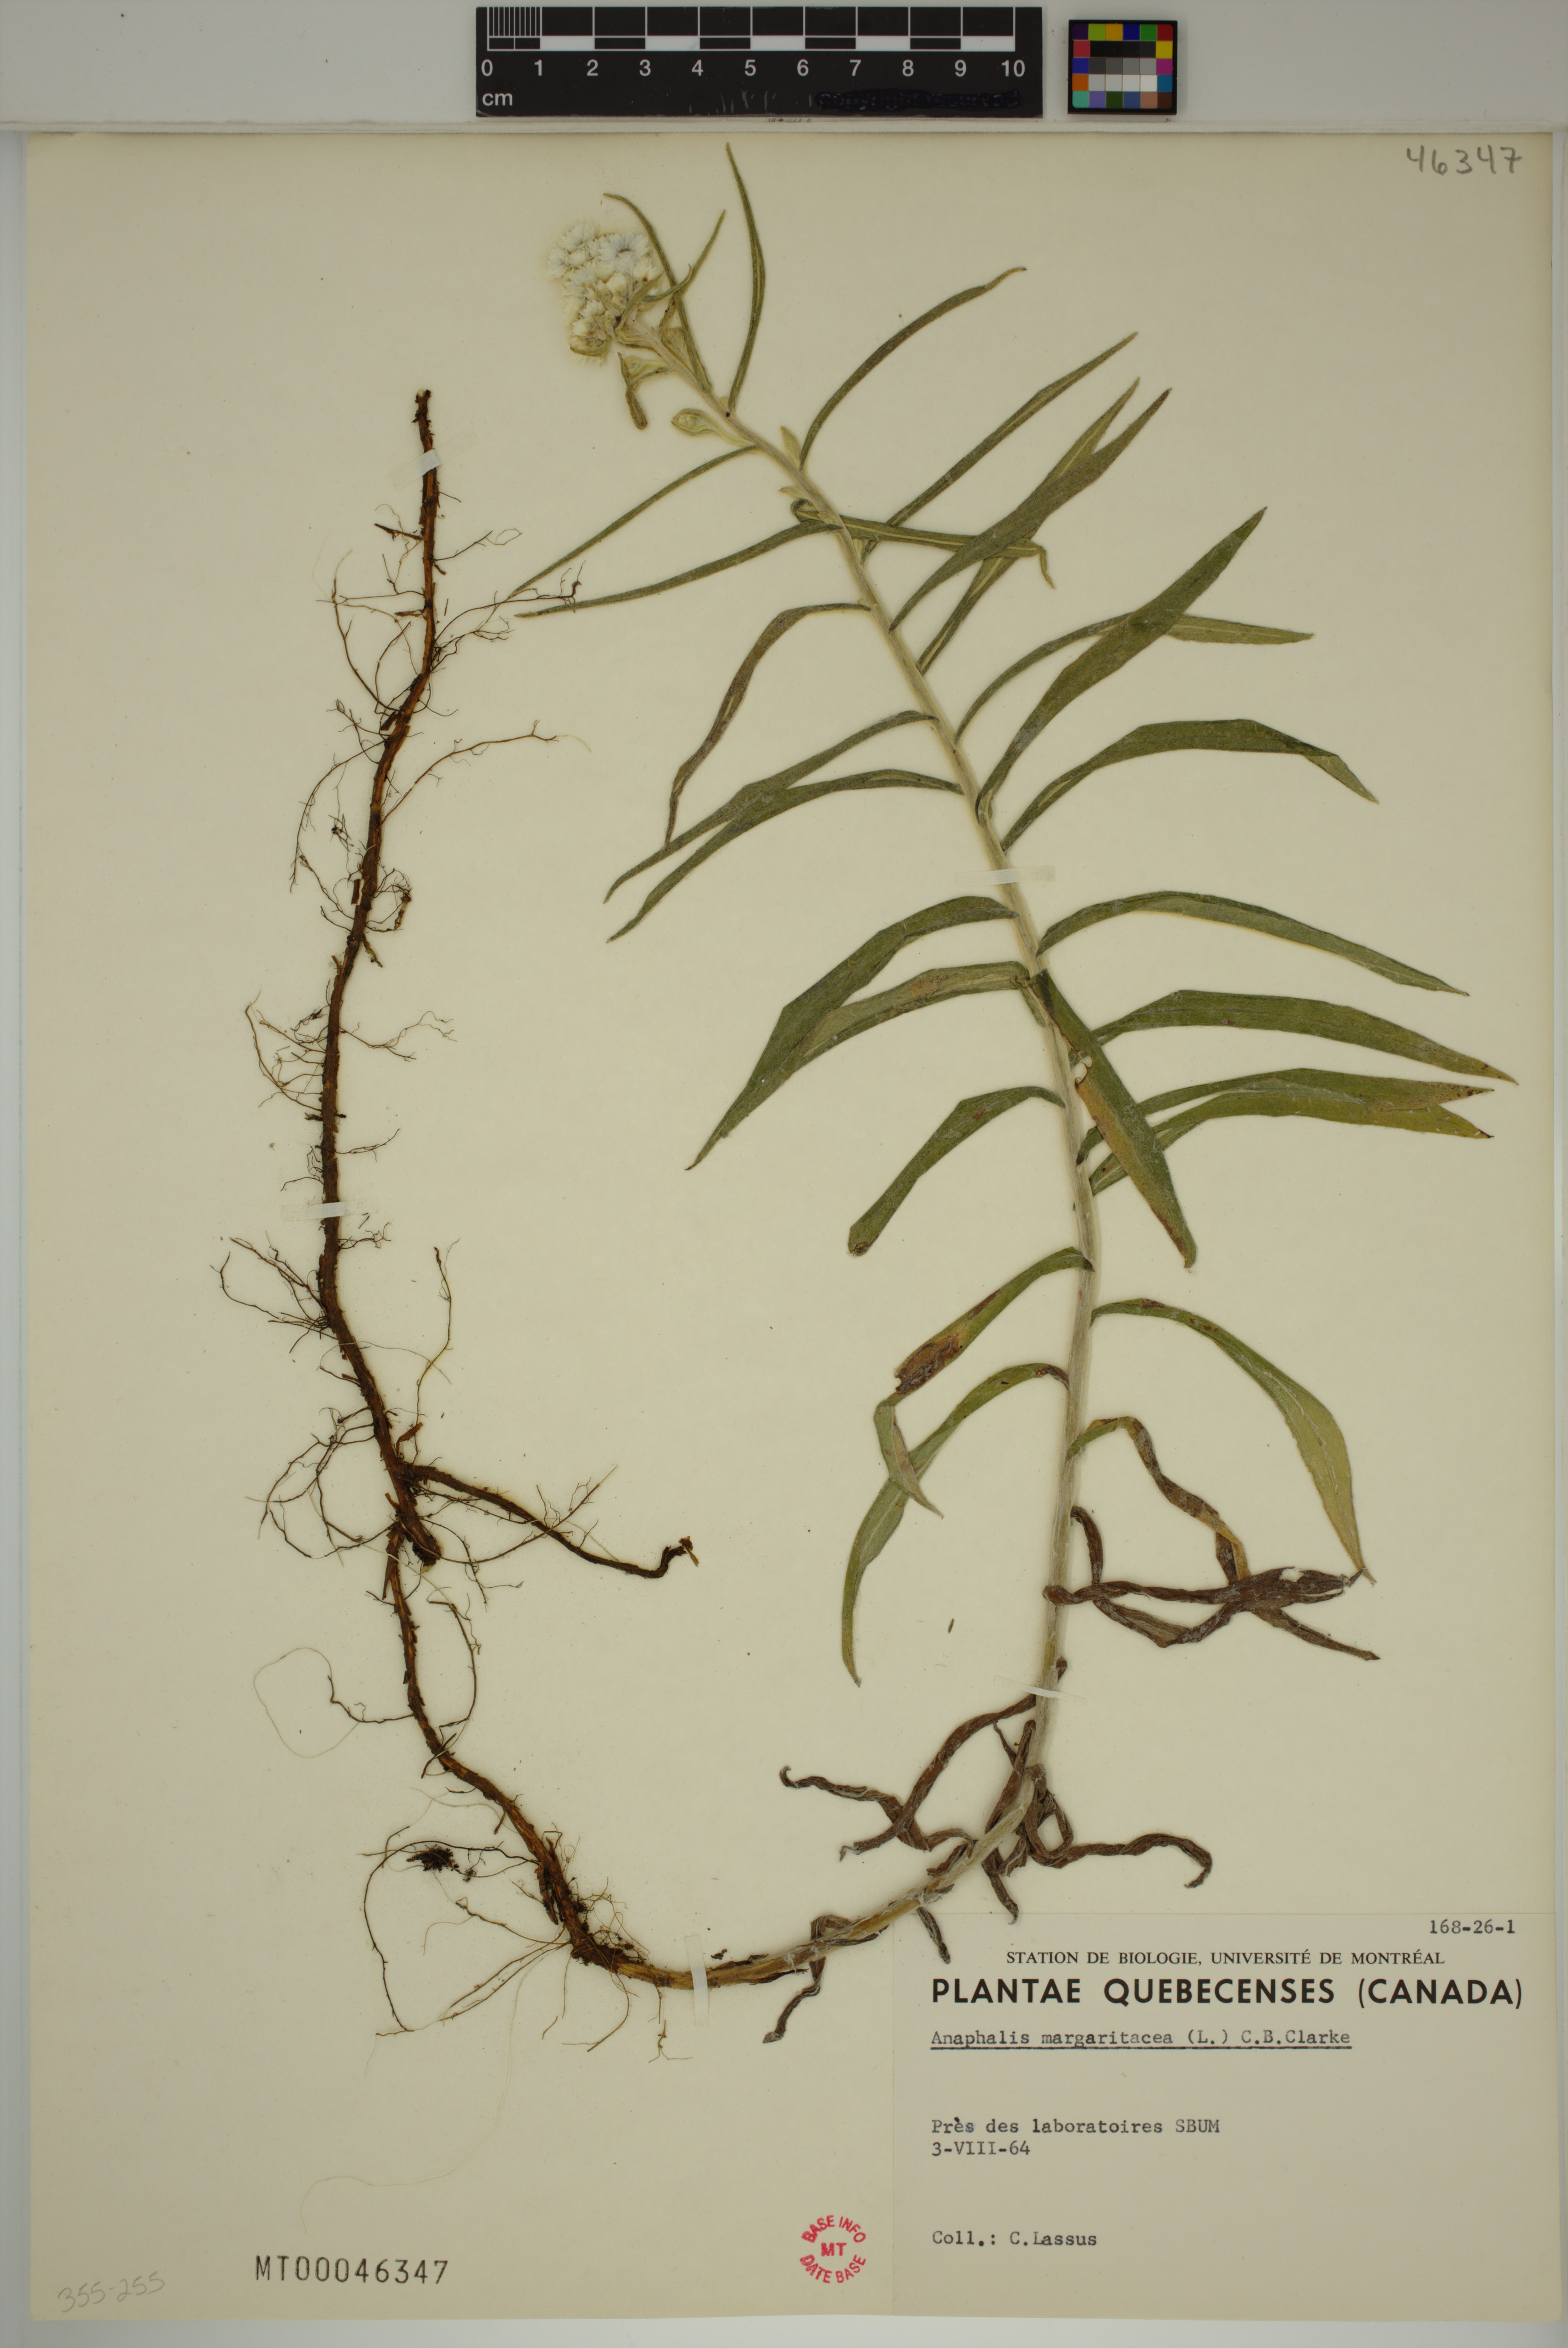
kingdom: Plantae
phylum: Tracheophyta
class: Magnoliopsida
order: Asterales
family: Asteraceae
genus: Anaphalis
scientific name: Anaphalis margaritacea
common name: Pearly everlasting
